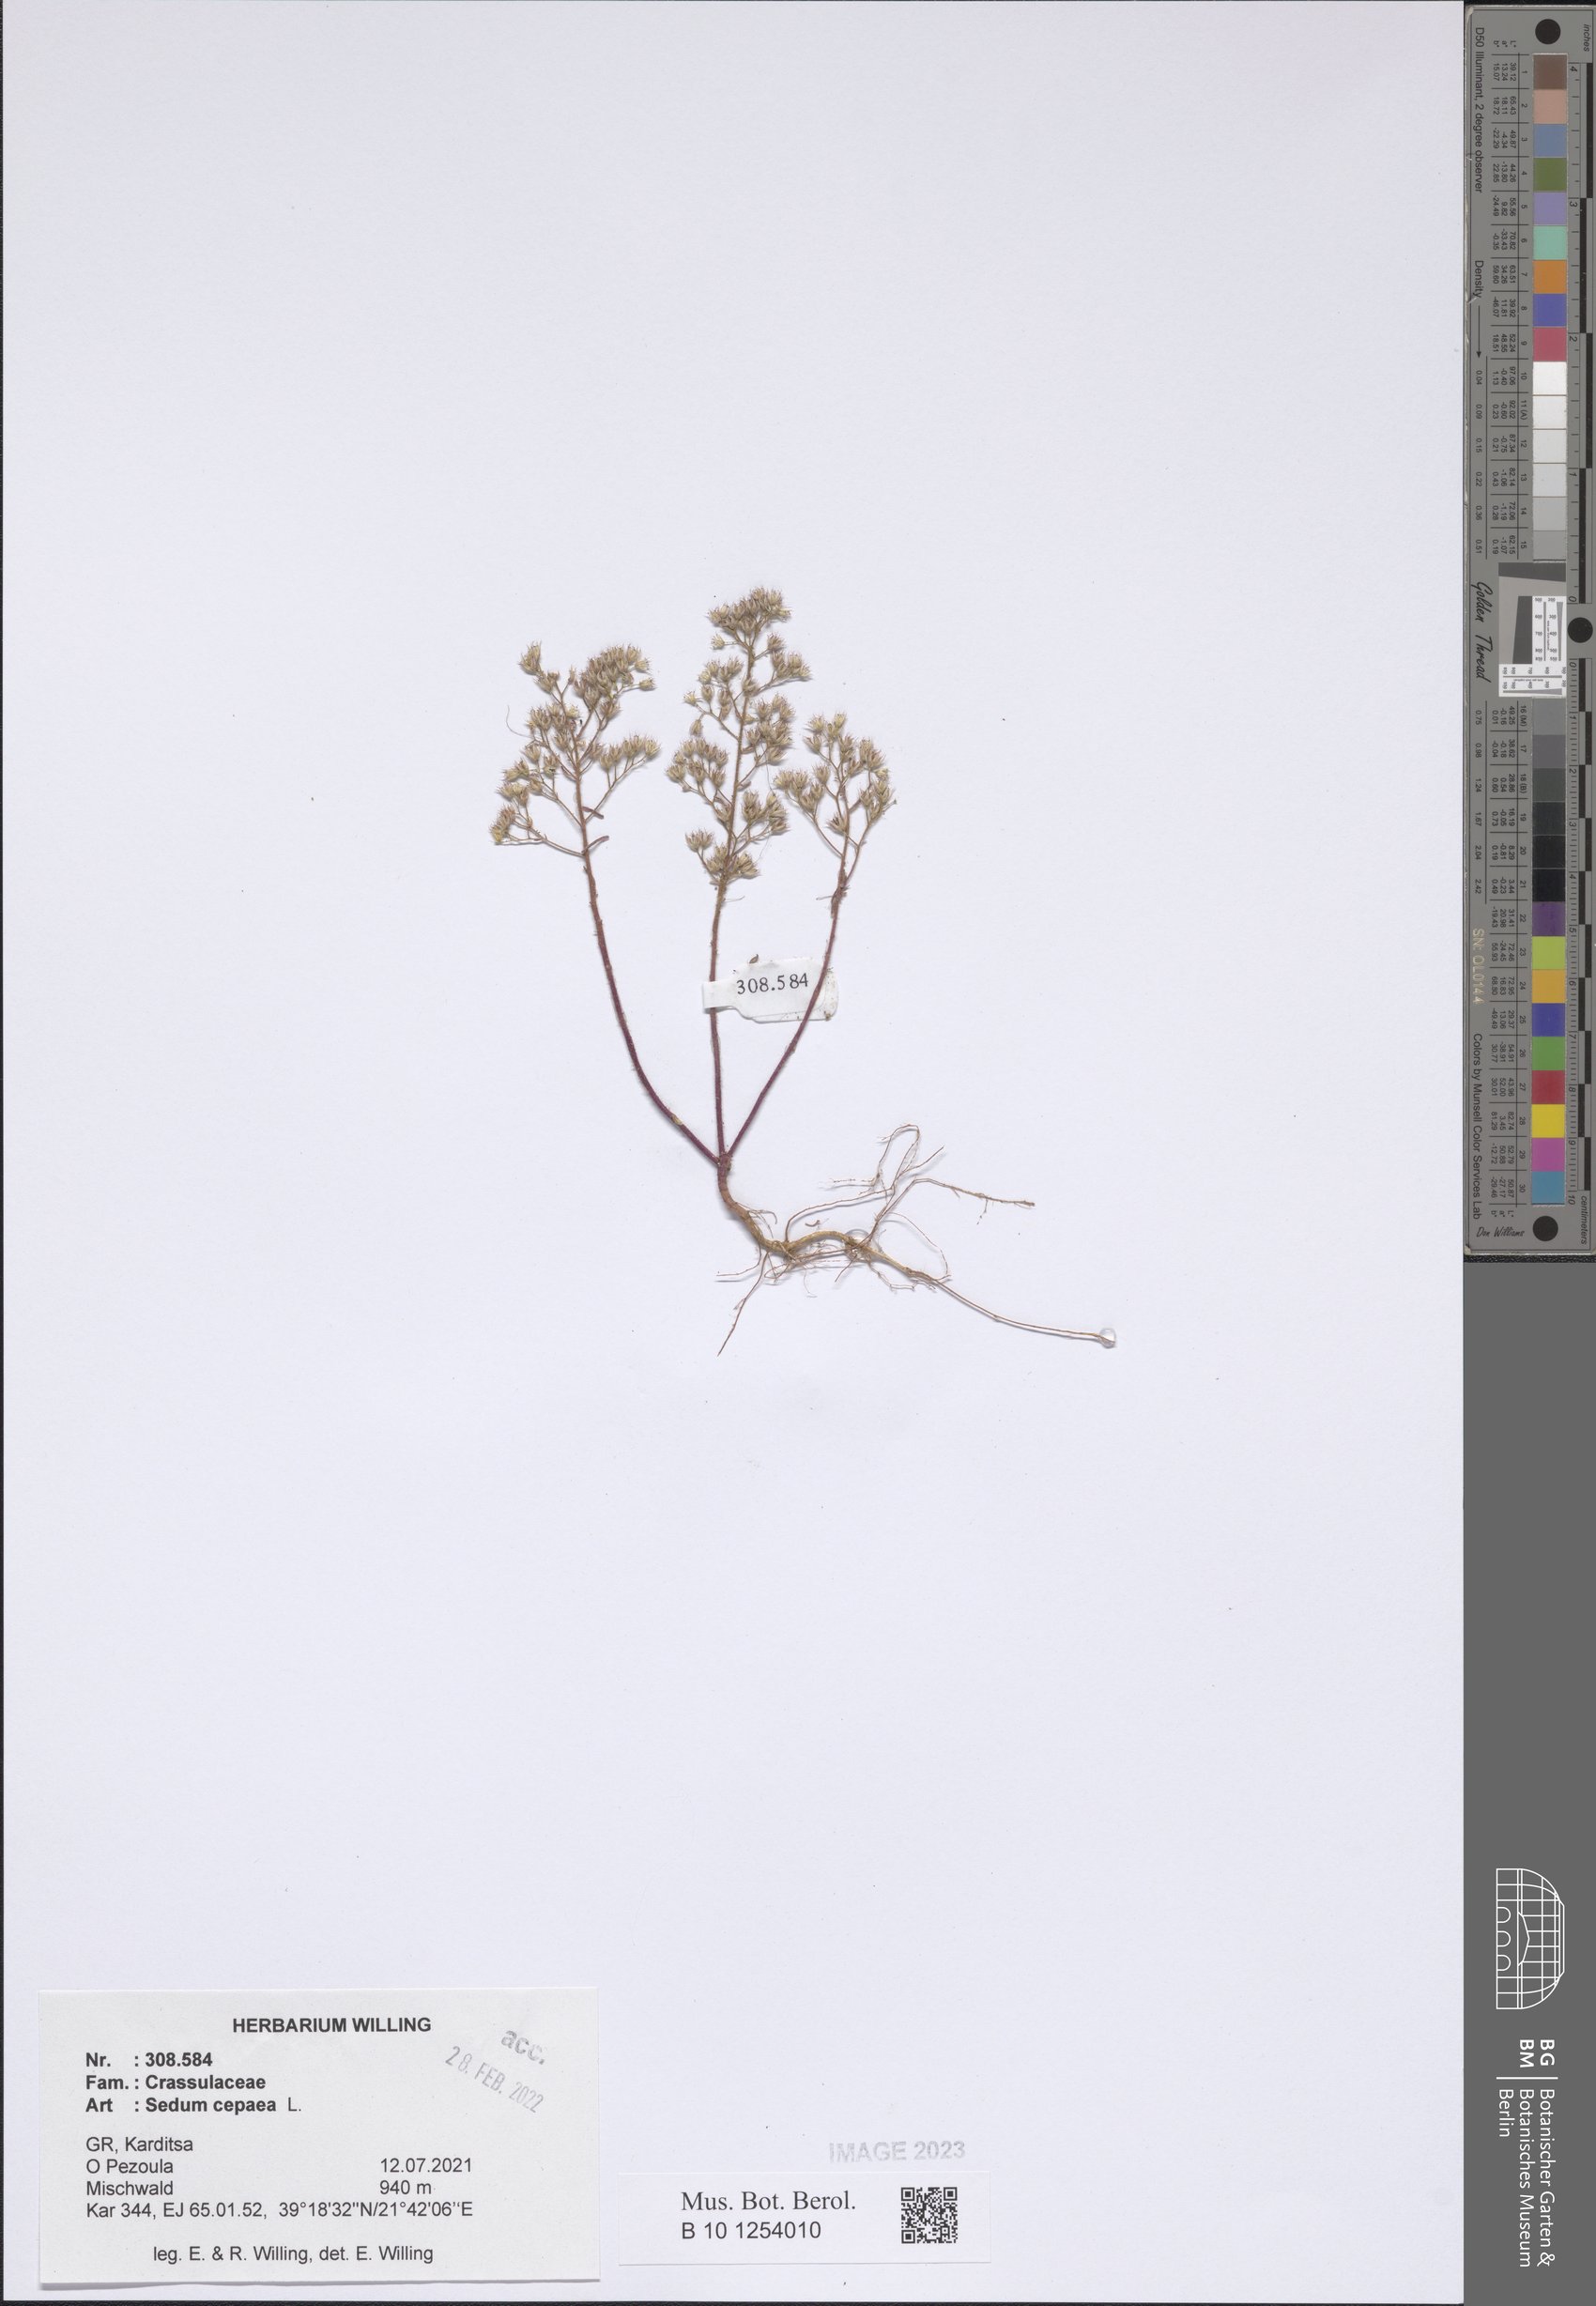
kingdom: Plantae
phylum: Tracheophyta
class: Magnoliopsida
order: Saxifragales
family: Crassulaceae
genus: Sedum
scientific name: Sedum cepaea
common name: Pink stonecrop
